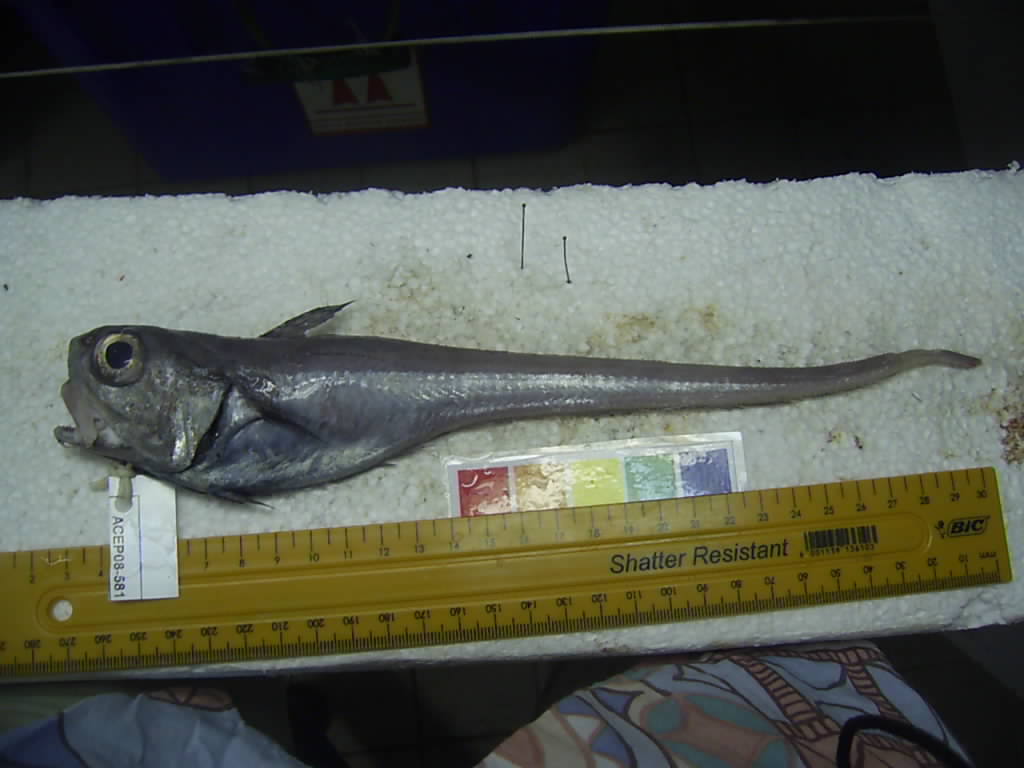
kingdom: Animalia
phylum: Chordata
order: Gadiformes
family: Macrouridae
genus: Malacocephalus
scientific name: Malacocephalus laevis
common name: Softhead grenadier
